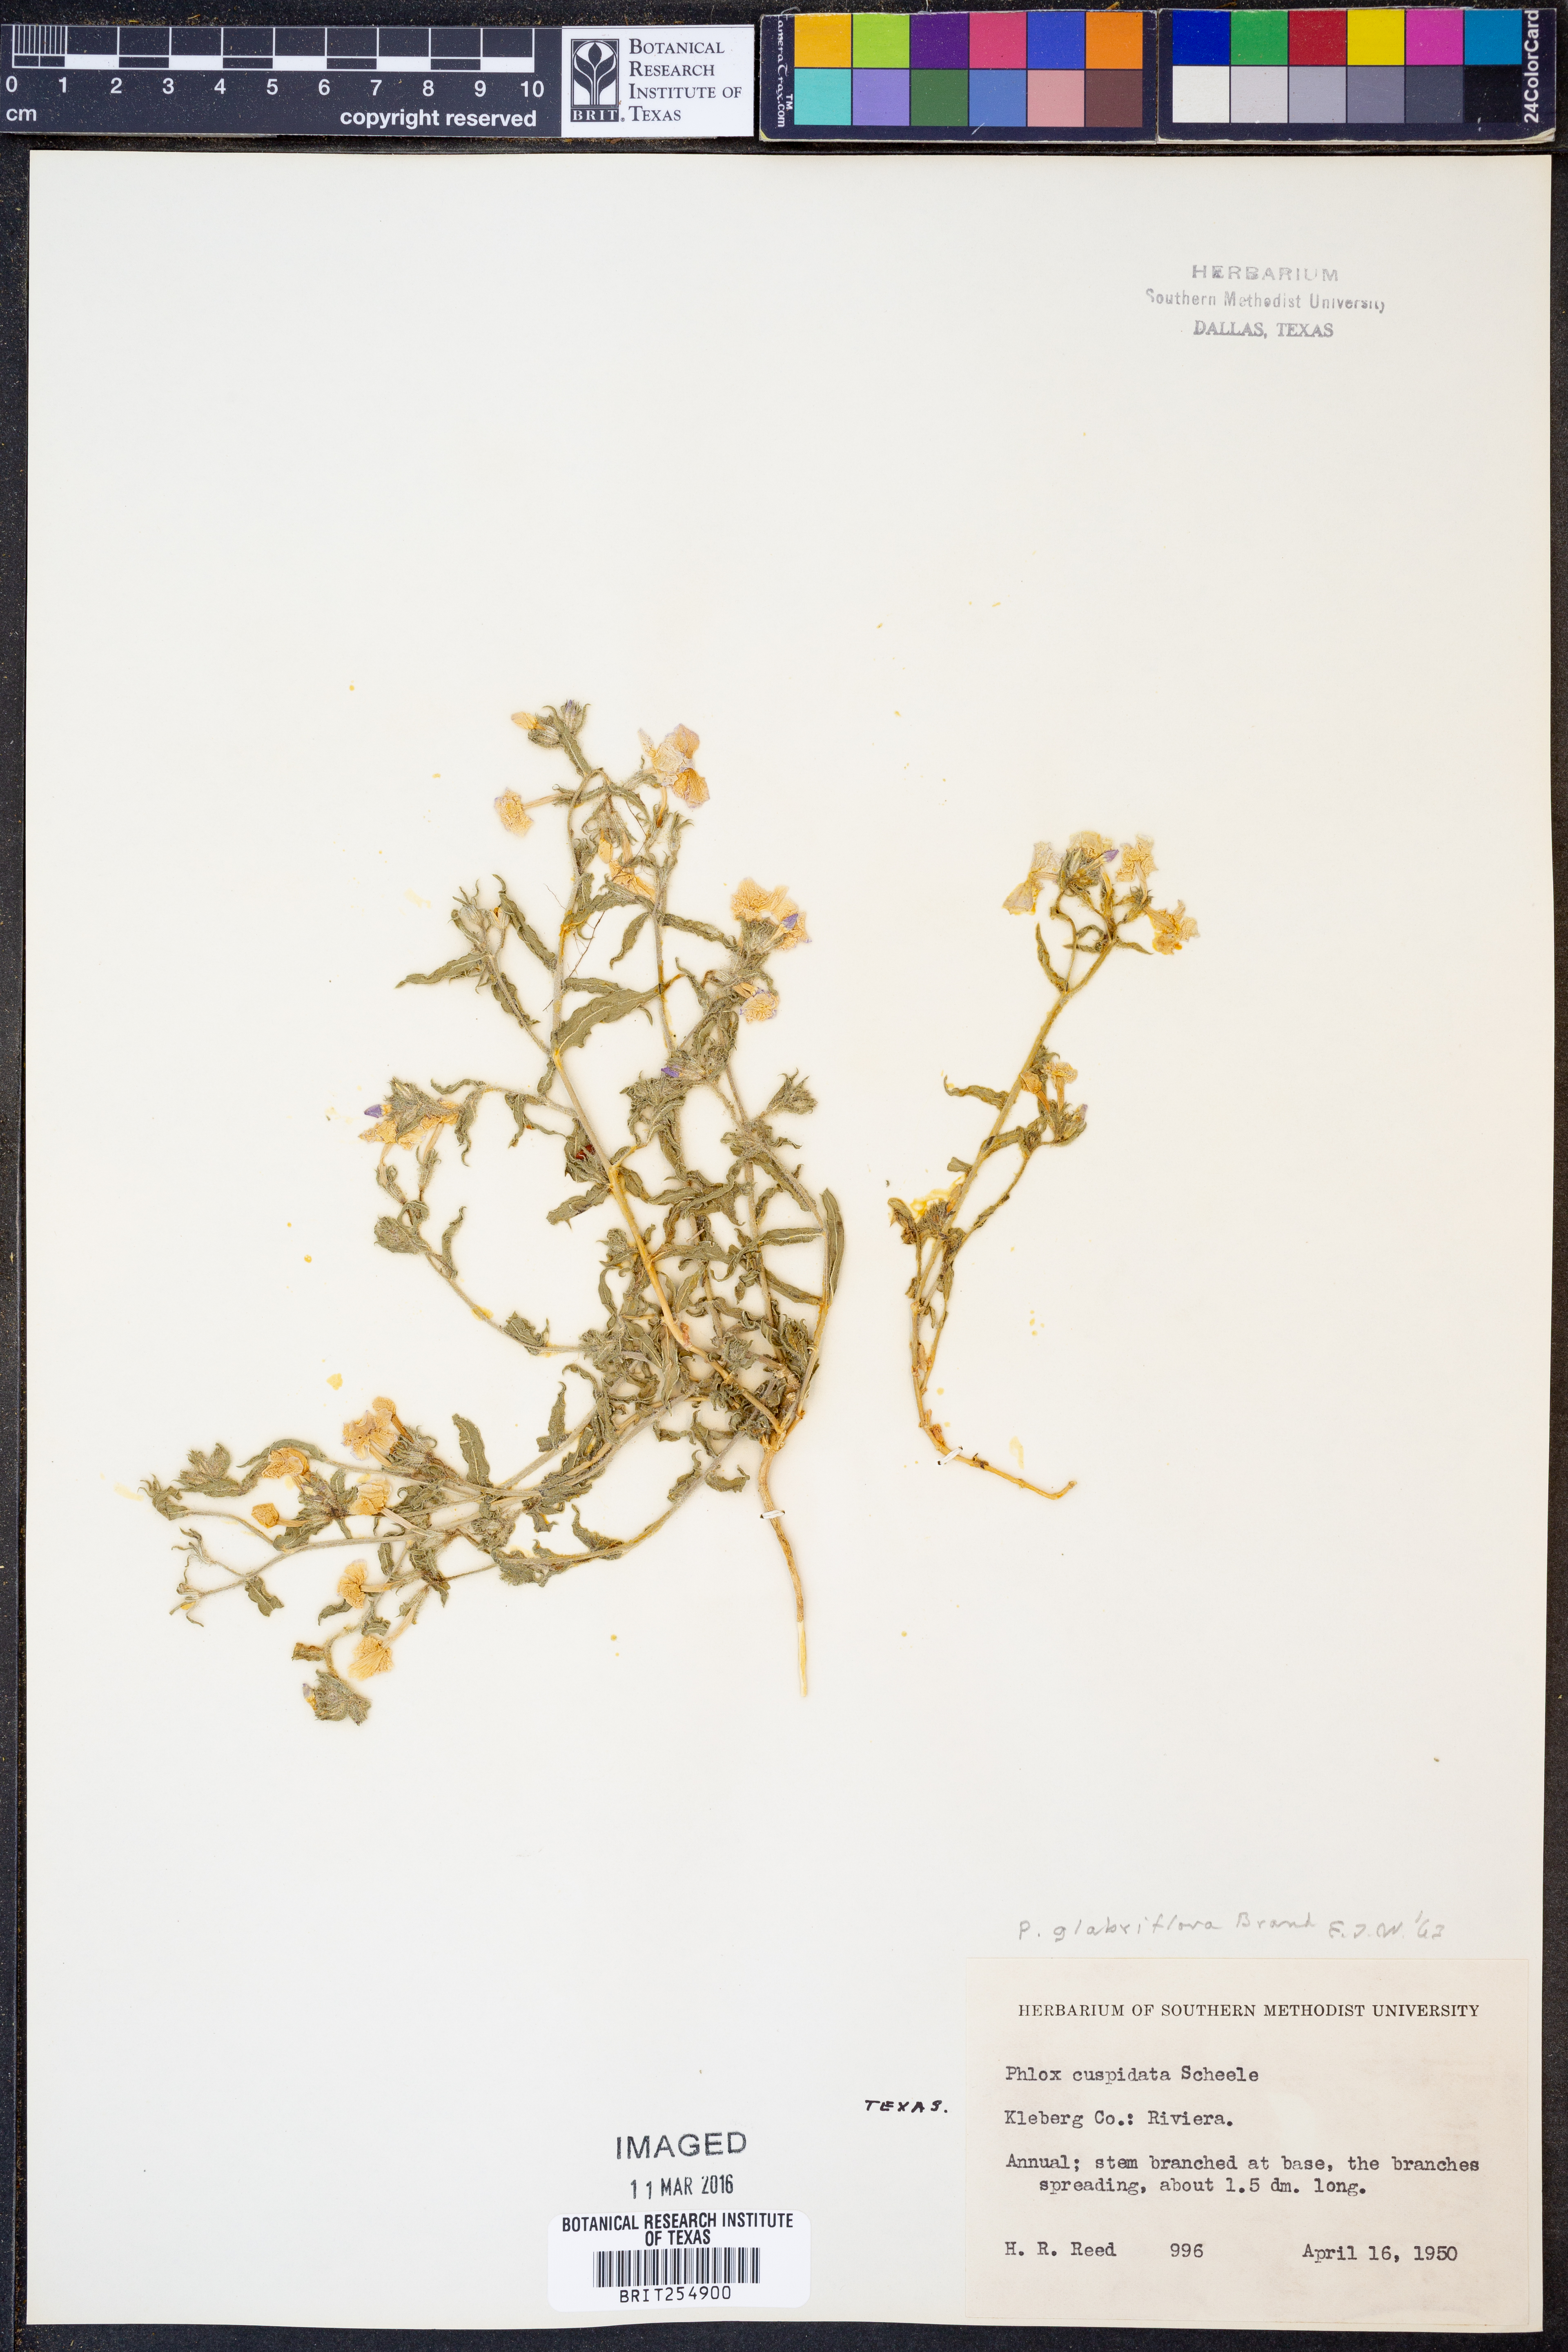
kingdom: Plantae
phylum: Tracheophyta
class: Magnoliopsida
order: Ericales
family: Polemoniaceae
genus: Phlox
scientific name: Phlox glabriflora
